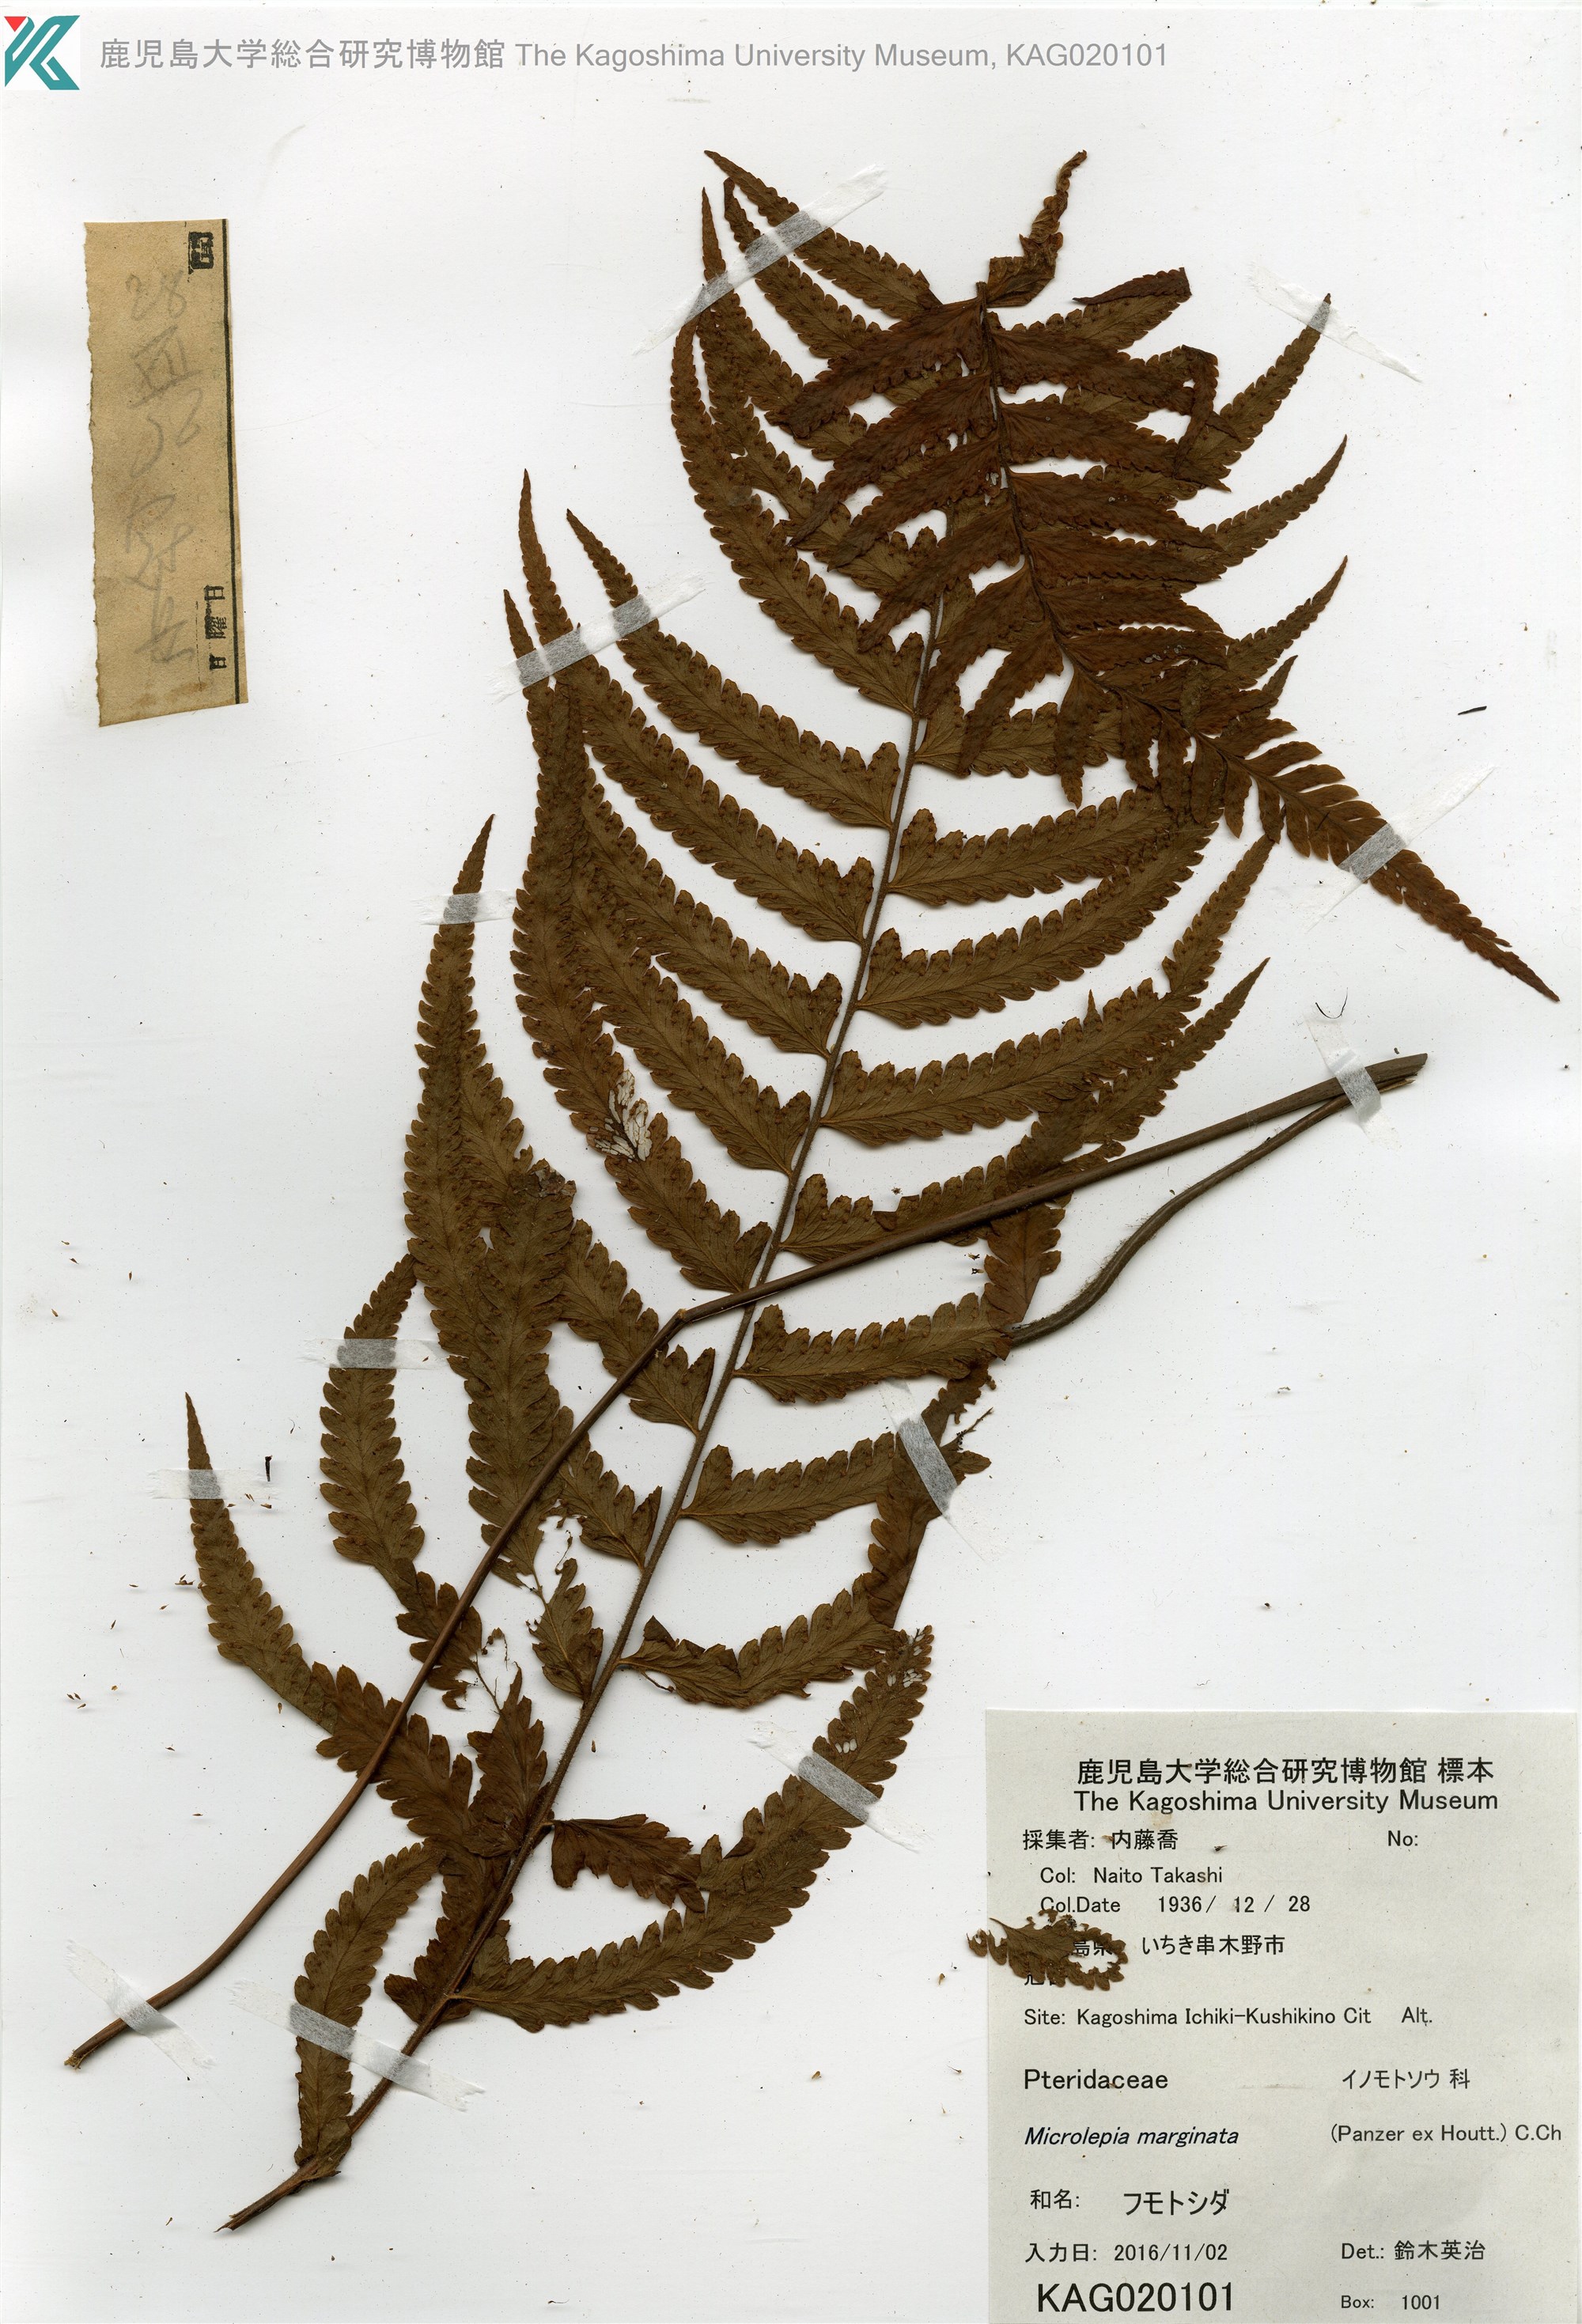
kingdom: Plantae
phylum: Tracheophyta
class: Polypodiopsida
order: Polypodiales
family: Dennstaedtiaceae
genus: Microlepia
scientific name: Microlepia marginata
